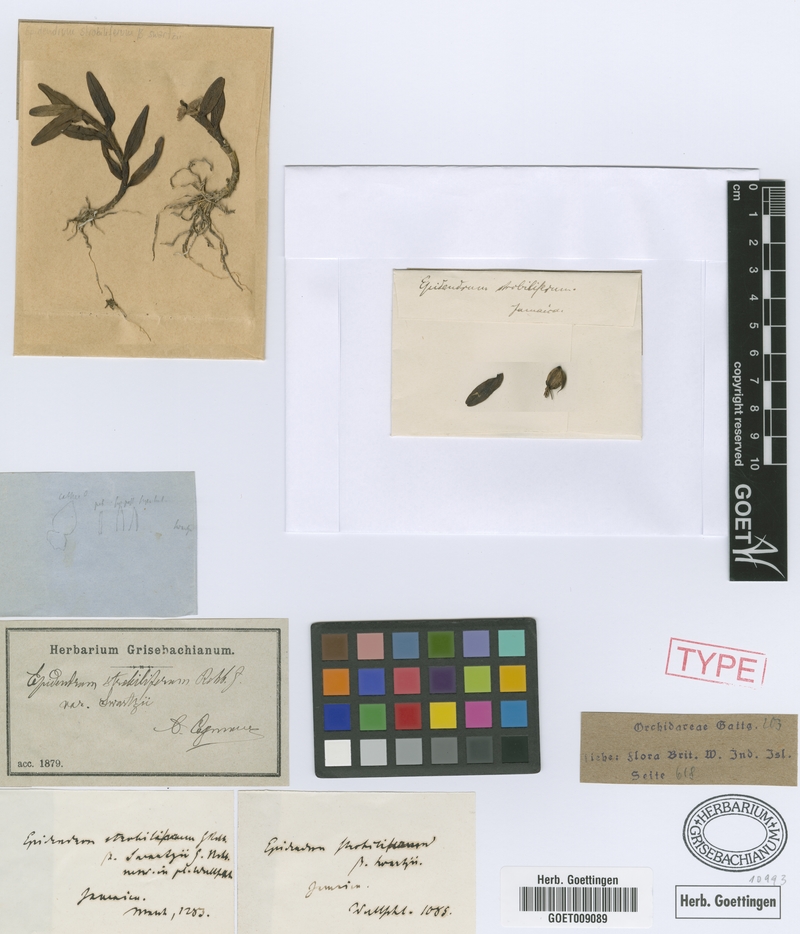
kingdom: Plantae
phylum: Tracheophyta
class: Liliopsida
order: Asparagales
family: Orchidaceae
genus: Epidendrum
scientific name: Epidendrum strobiliferum
